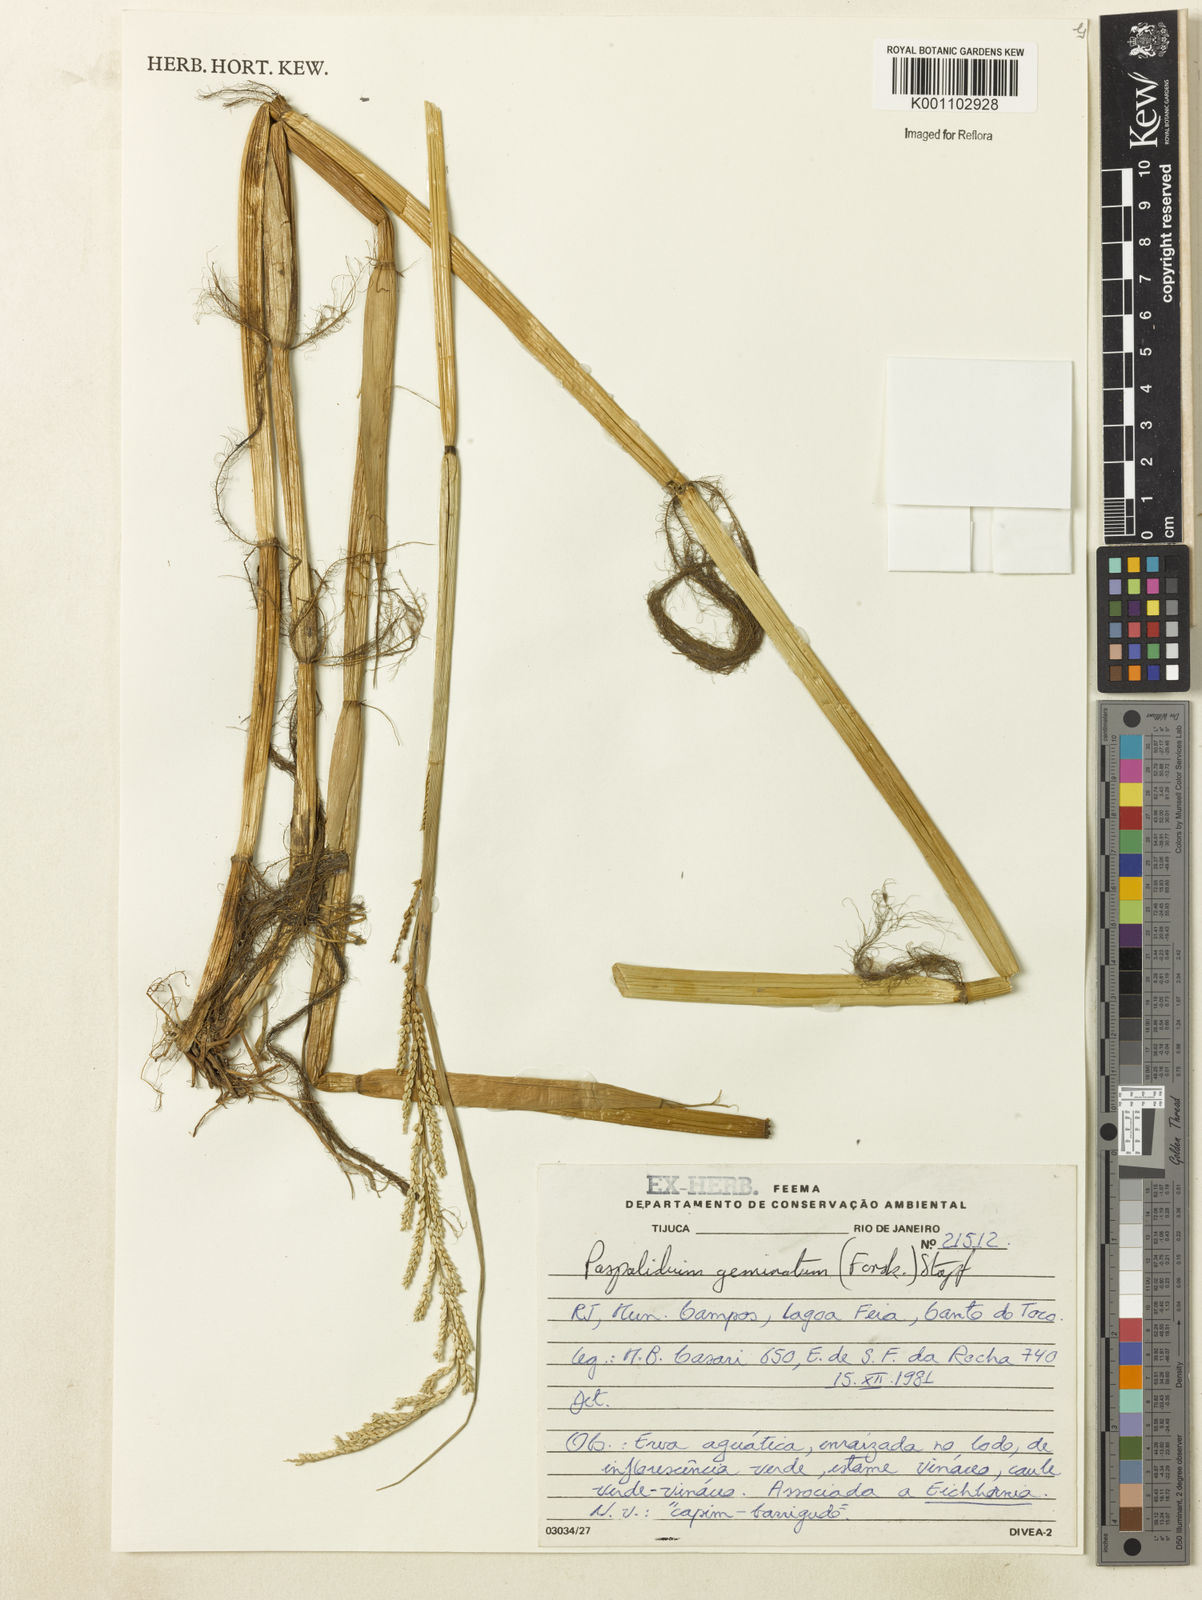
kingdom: Plantae
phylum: Tracheophyta
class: Liliopsida
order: Poales
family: Poaceae
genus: Setaria
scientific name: Setaria geminata
